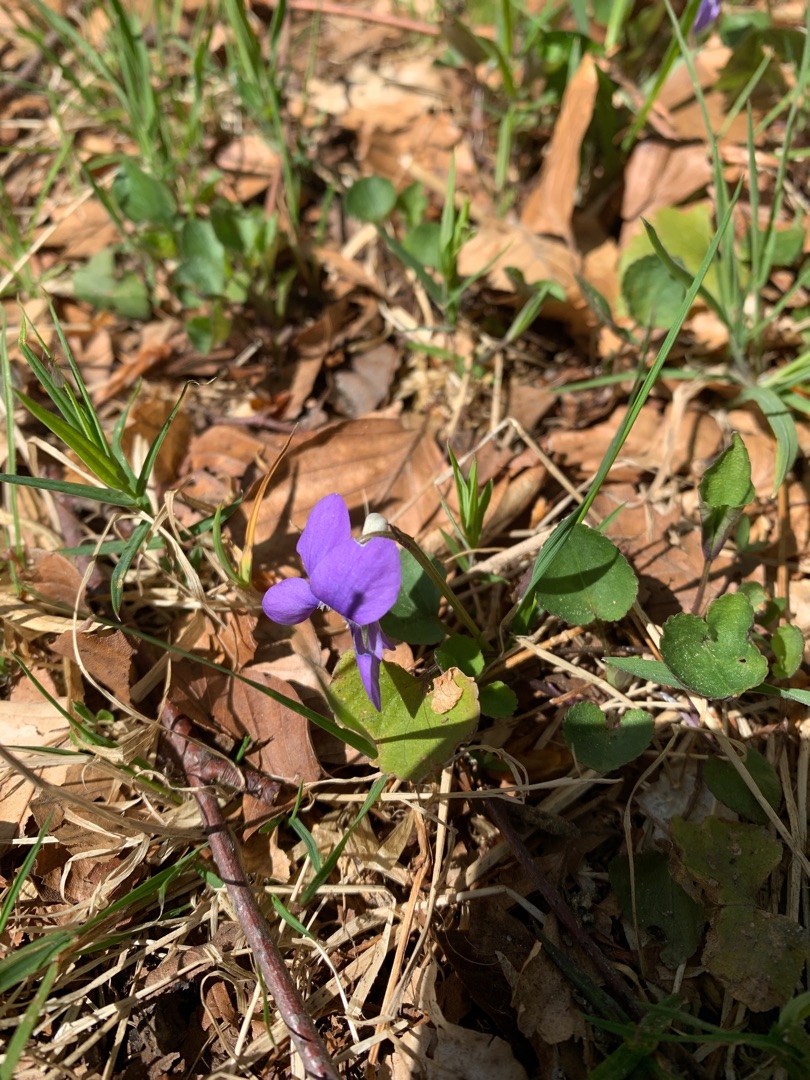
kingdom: Plantae
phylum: Tracheophyta
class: Magnoliopsida
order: Malpighiales
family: Violaceae
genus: Viola
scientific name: Viola riviniana
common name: Krat-viol
